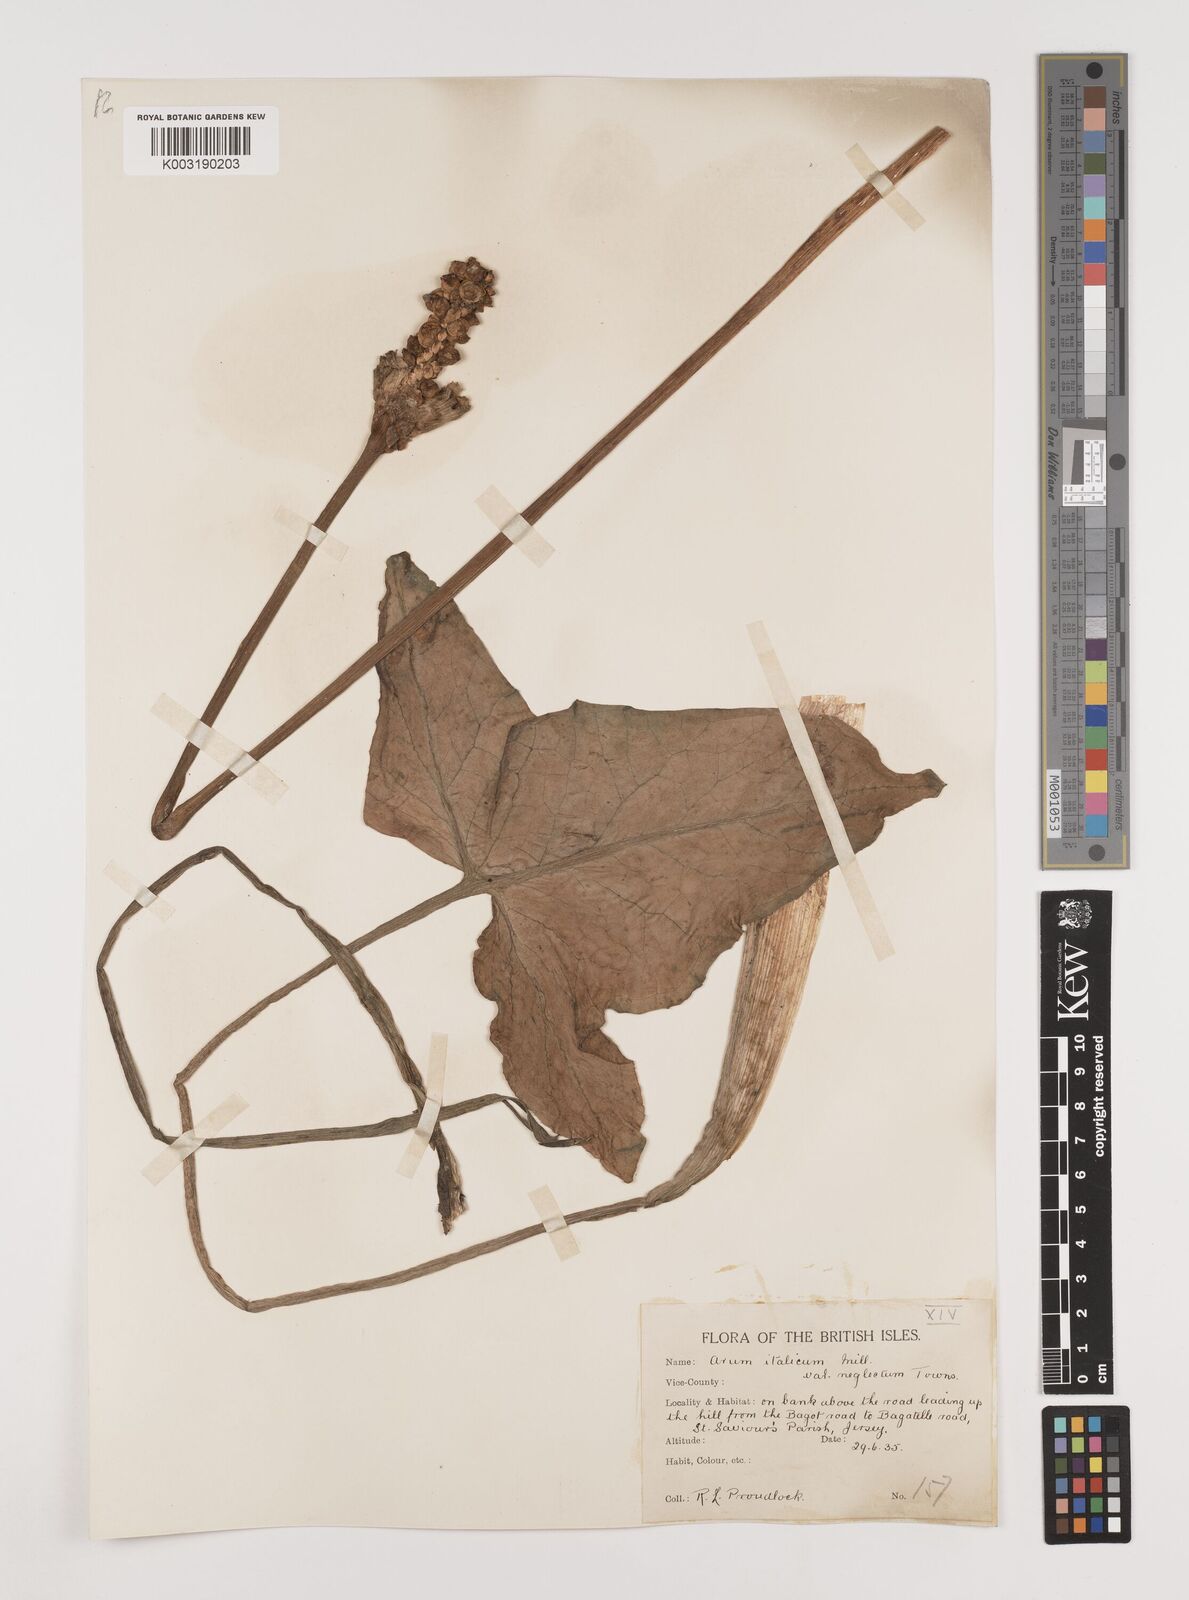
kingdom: Plantae
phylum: Tracheophyta
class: Liliopsida
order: Alismatales
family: Araceae
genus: Arum
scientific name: Arum italicum
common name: Italian lords-and-ladies
